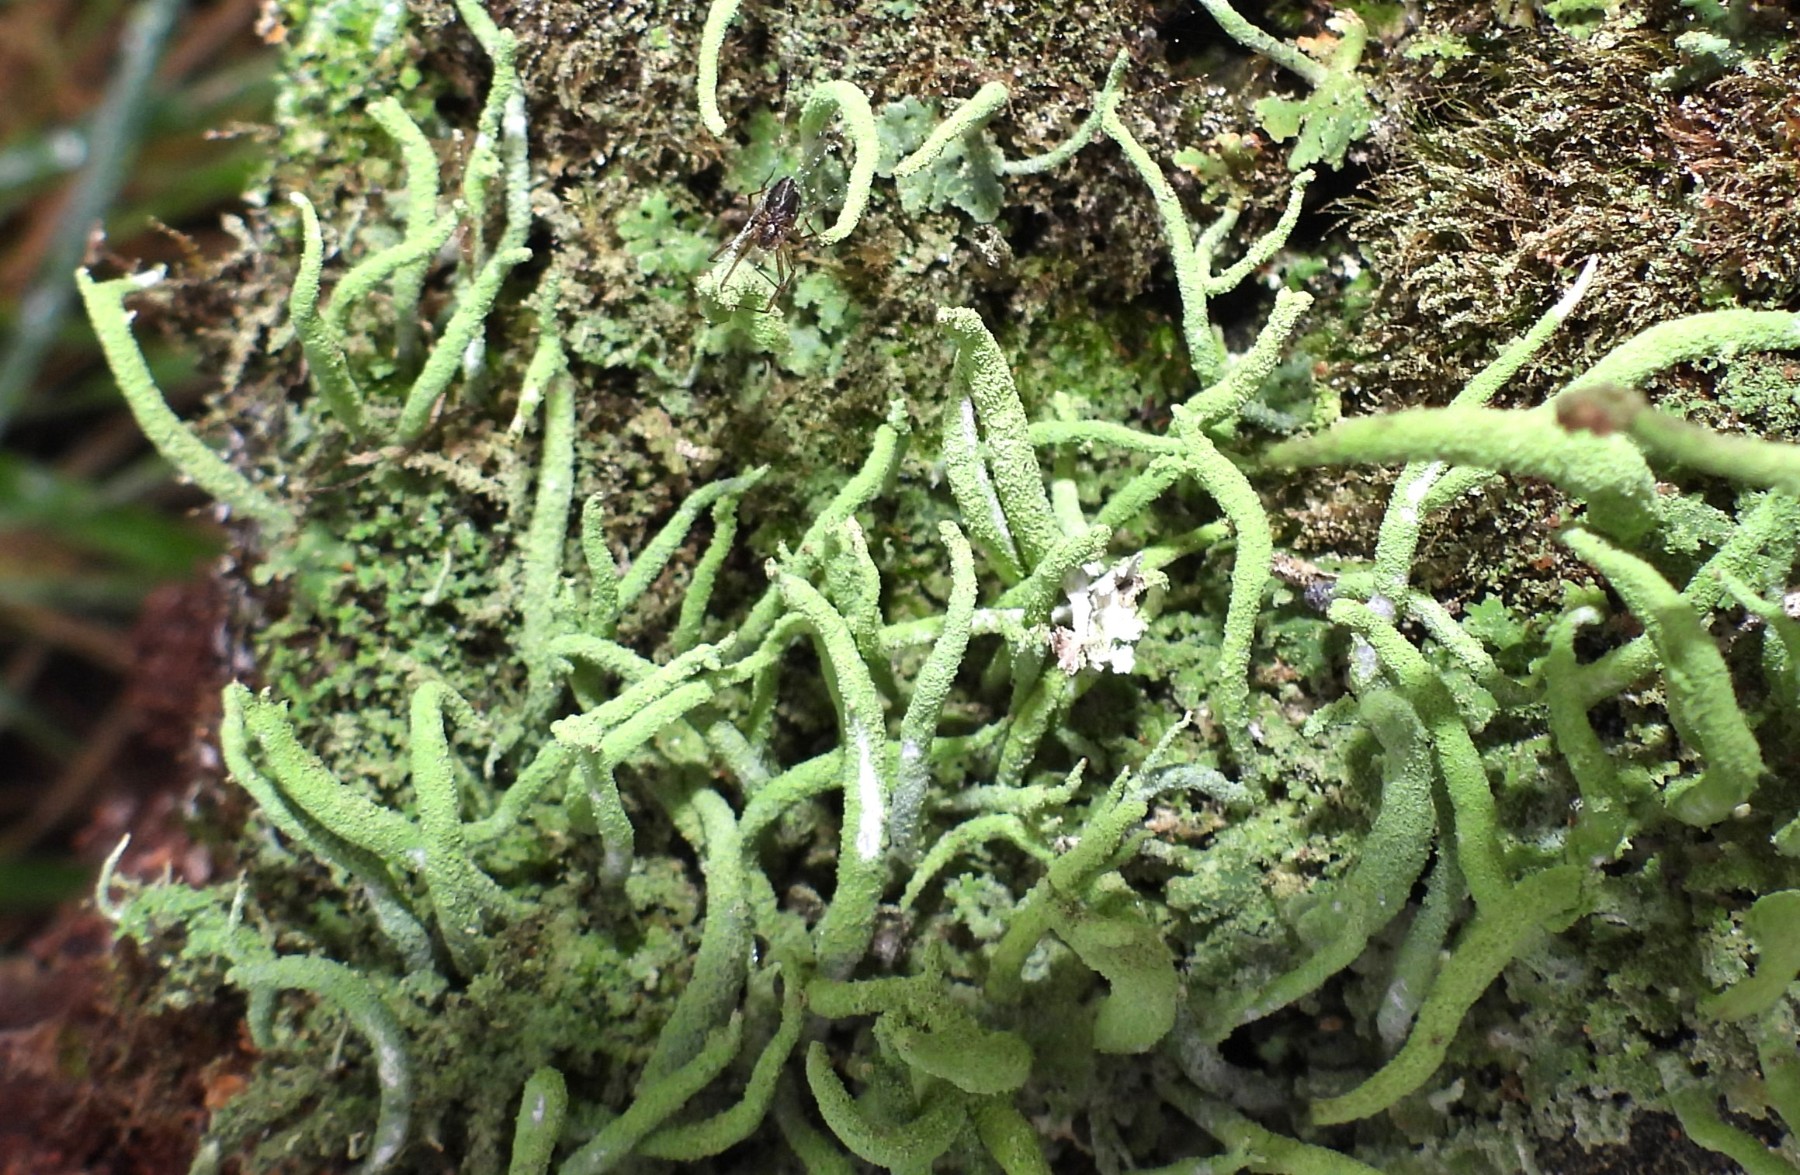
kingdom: Fungi
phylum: Ascomycota
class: Lecanoromycetes
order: Lecanorales
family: Cladoniaceae
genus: Cladonia
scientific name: Cladonia coniocraea
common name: træfods-bægerlav
